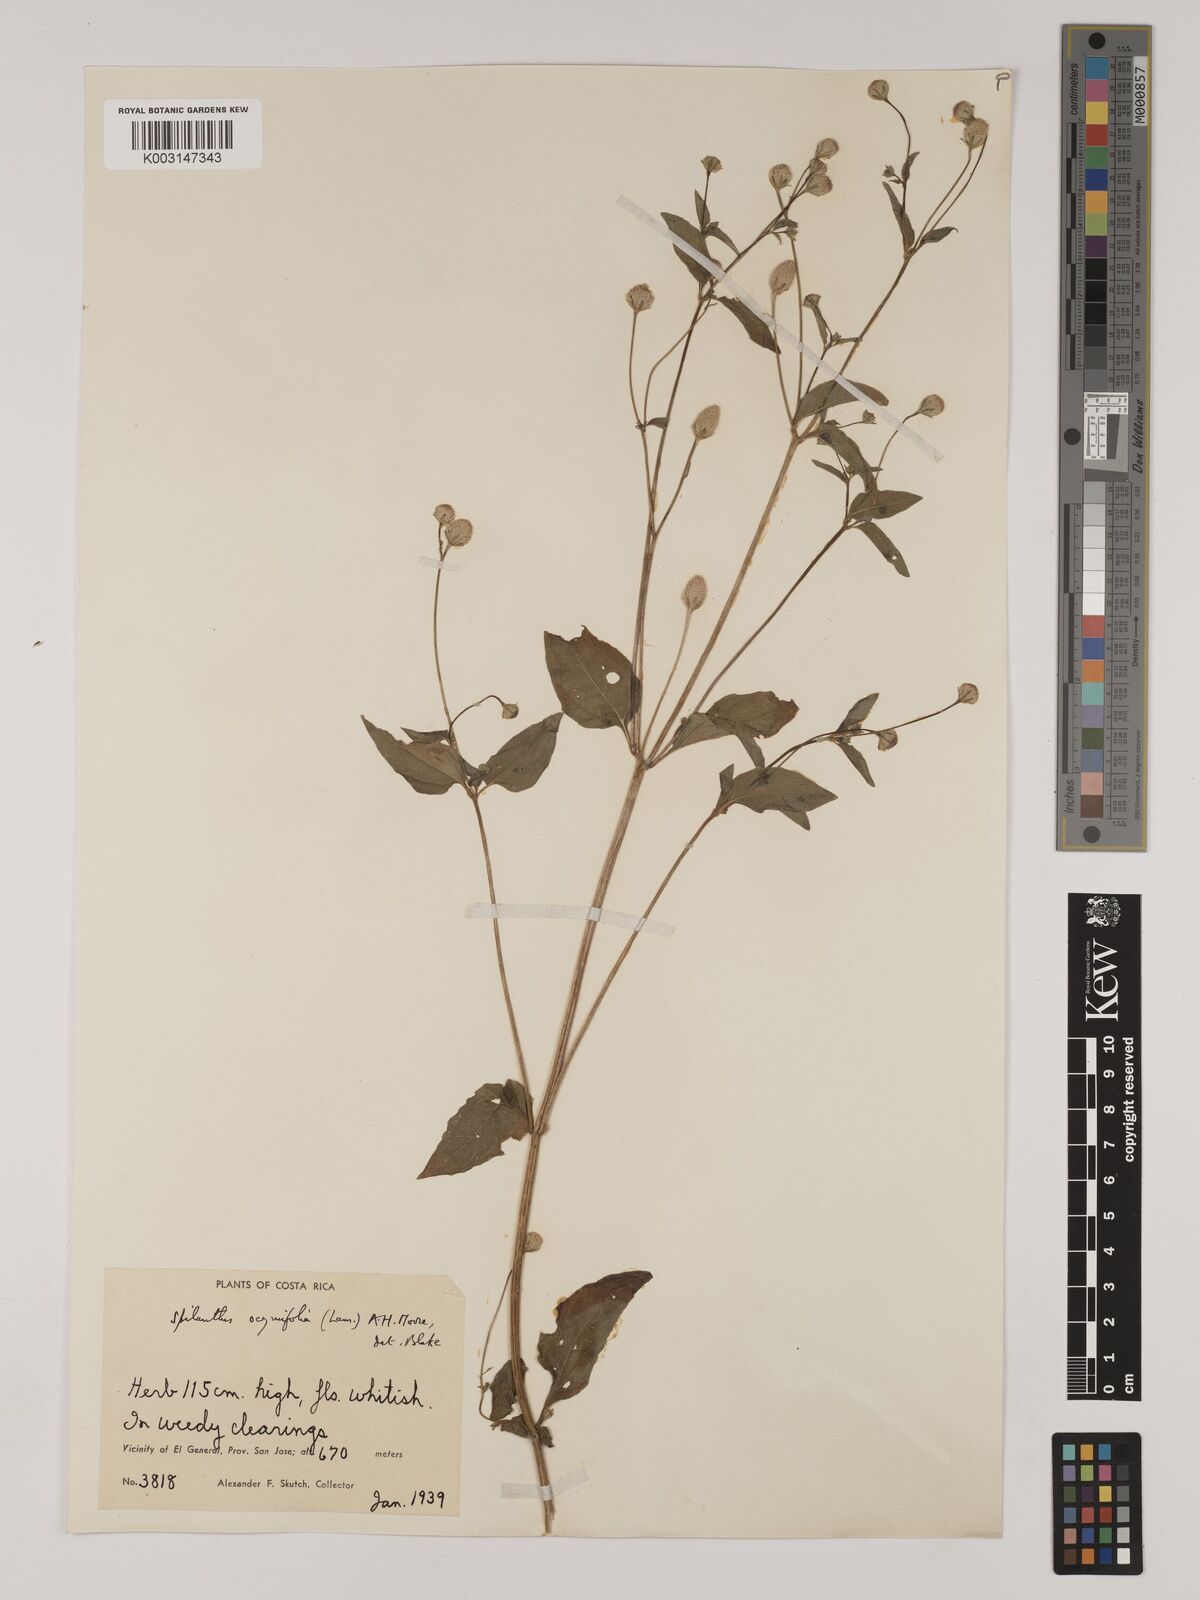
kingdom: Plantae
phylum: Tracheophyta
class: Magnoliopsida
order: Asterales
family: Asteraceae
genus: Acmella
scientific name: Acmella radicans
